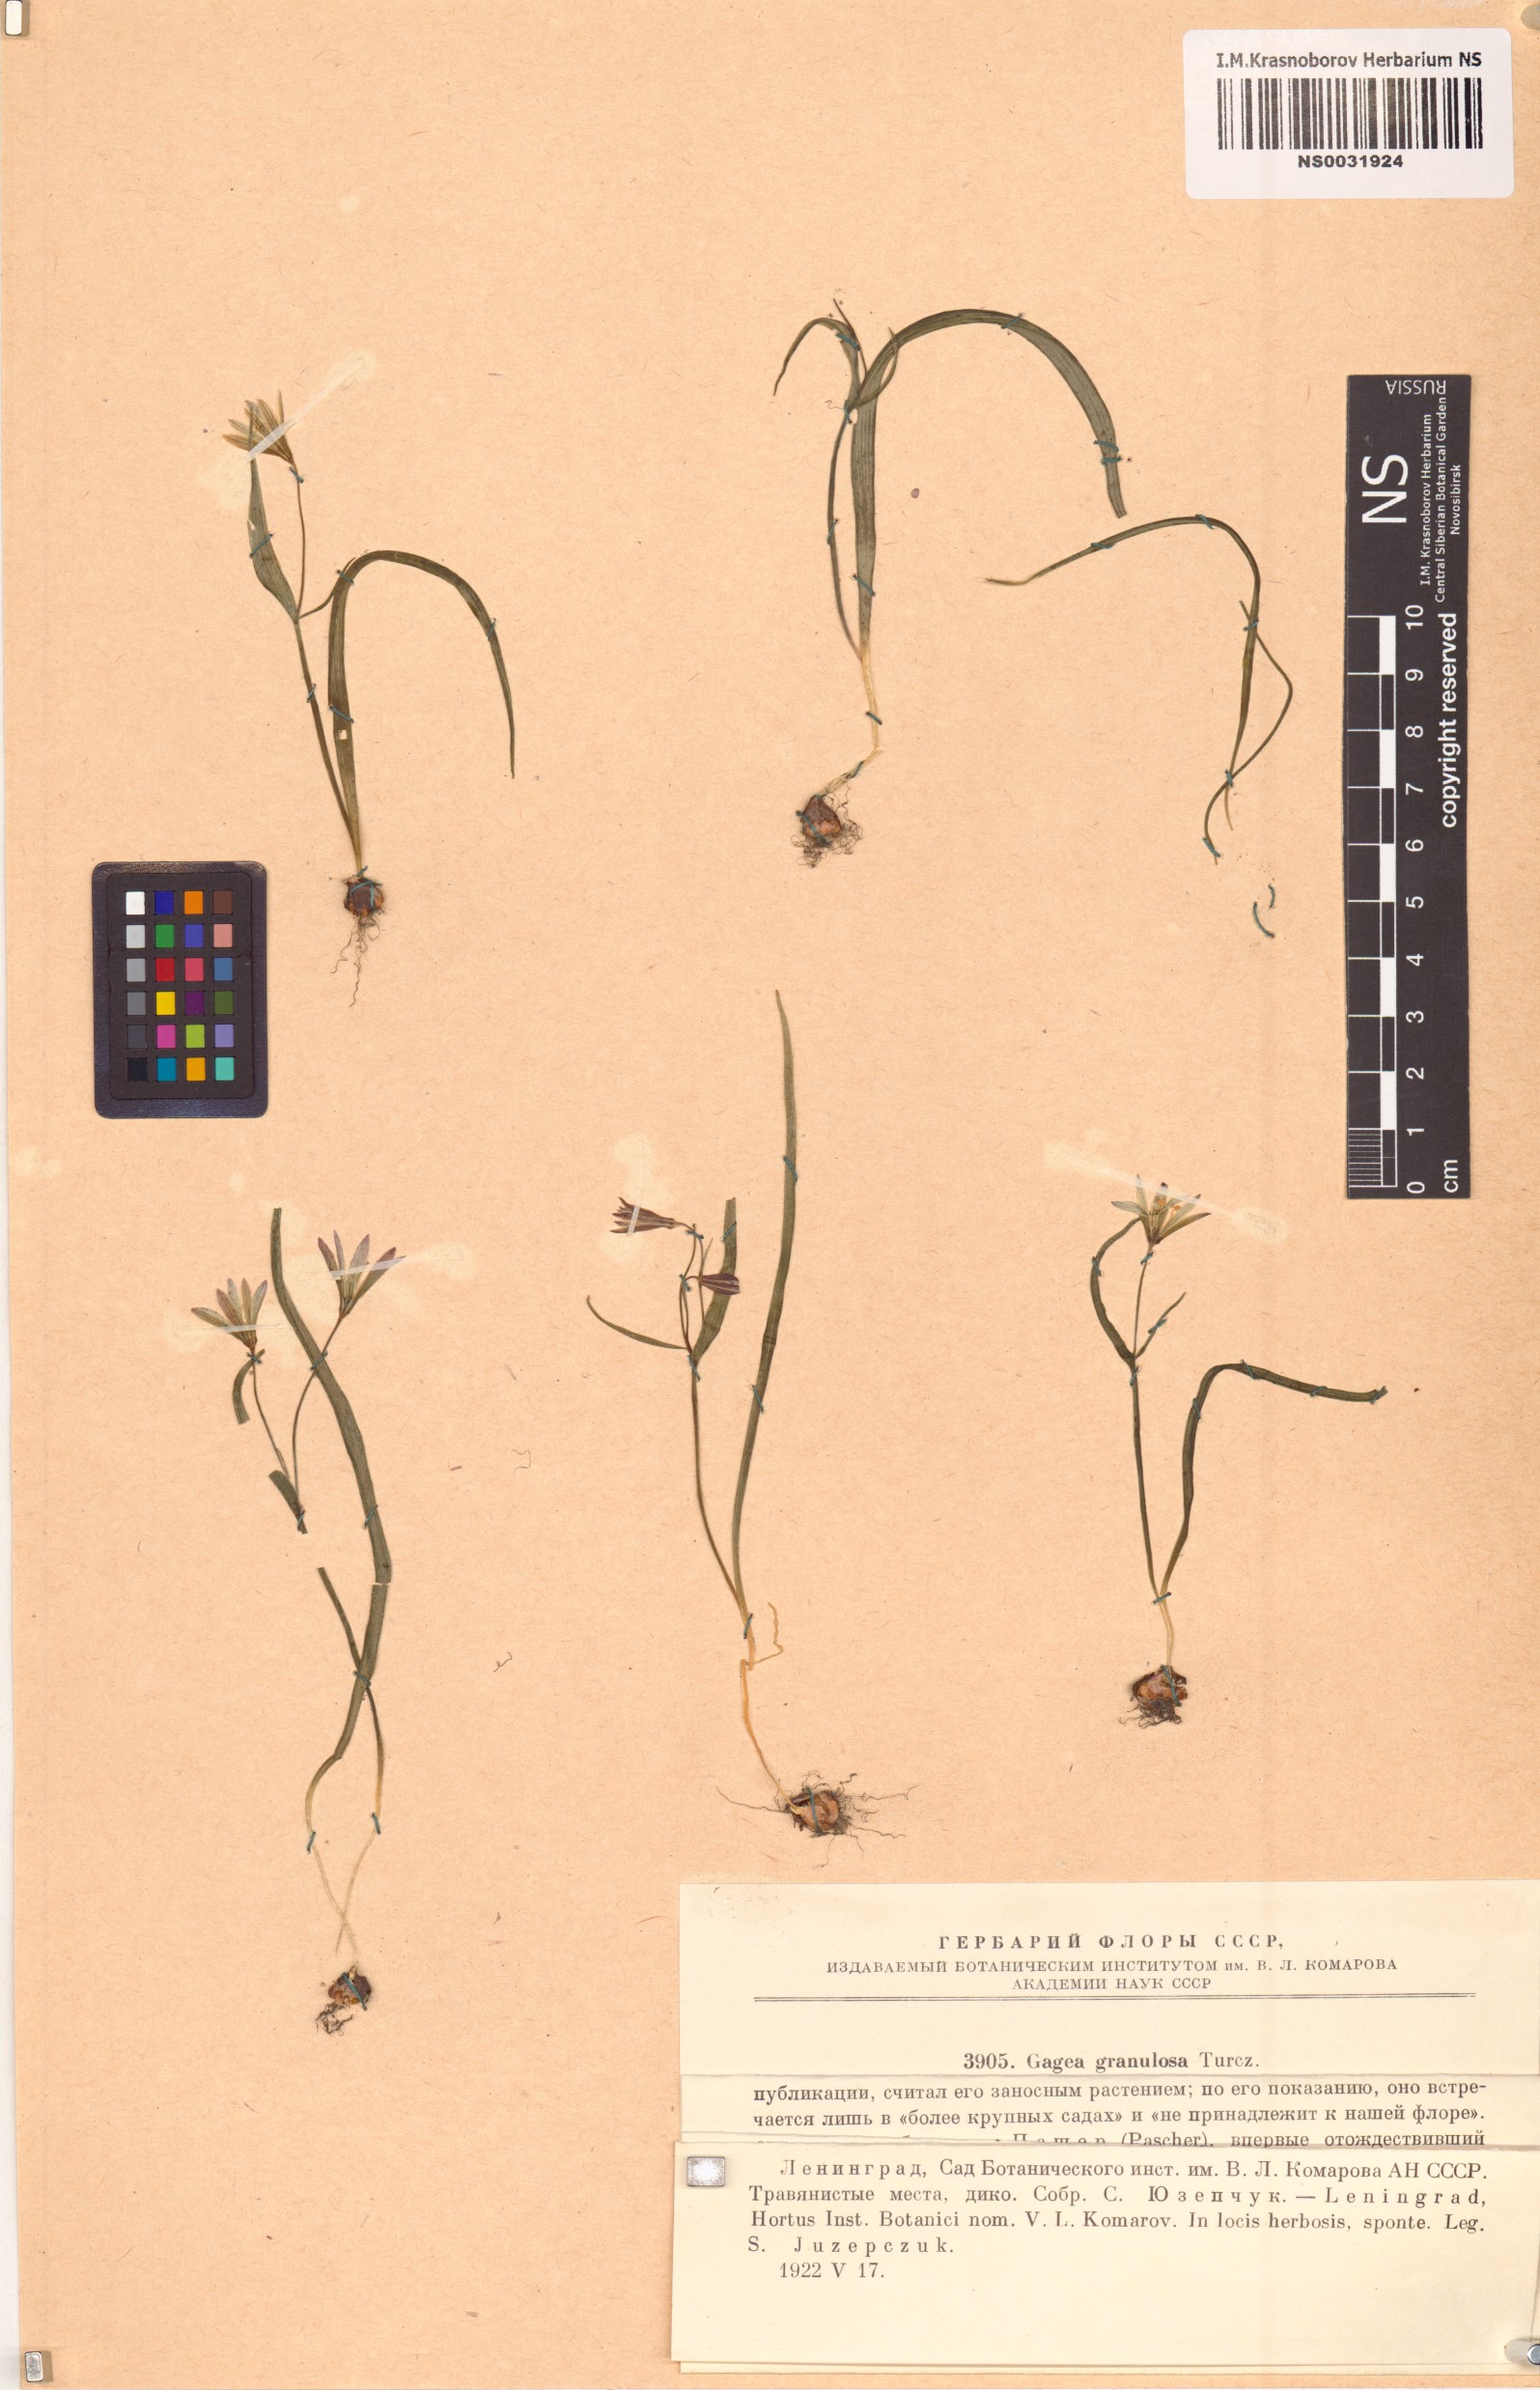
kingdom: Plantae
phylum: Tracheophyta
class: Liliopsida
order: Liliales
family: Liliaceae
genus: Gagea
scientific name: Gagea granulosa
